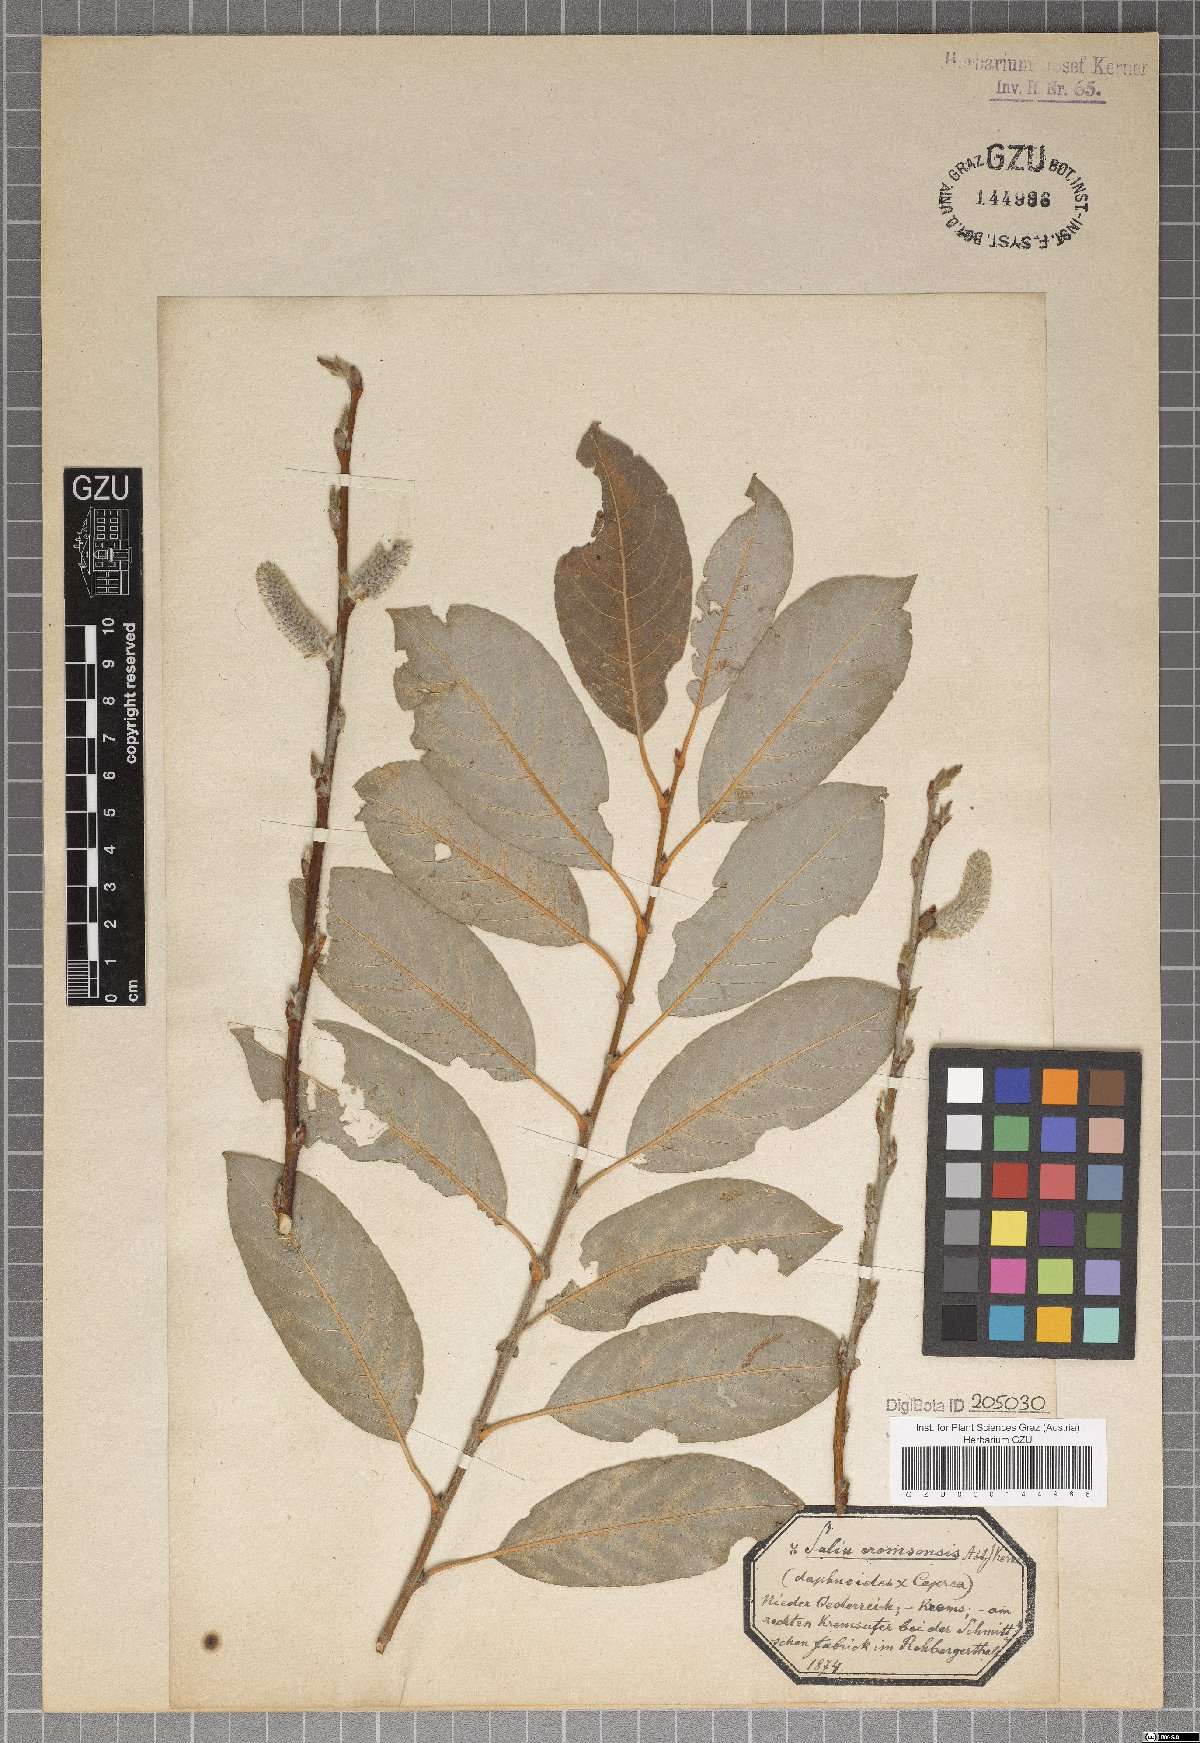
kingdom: Plantae
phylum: Tracheophyta
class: Magnoliopsida
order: Malpighiales
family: Salicaceae
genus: Salix
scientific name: Salix erdingeri
